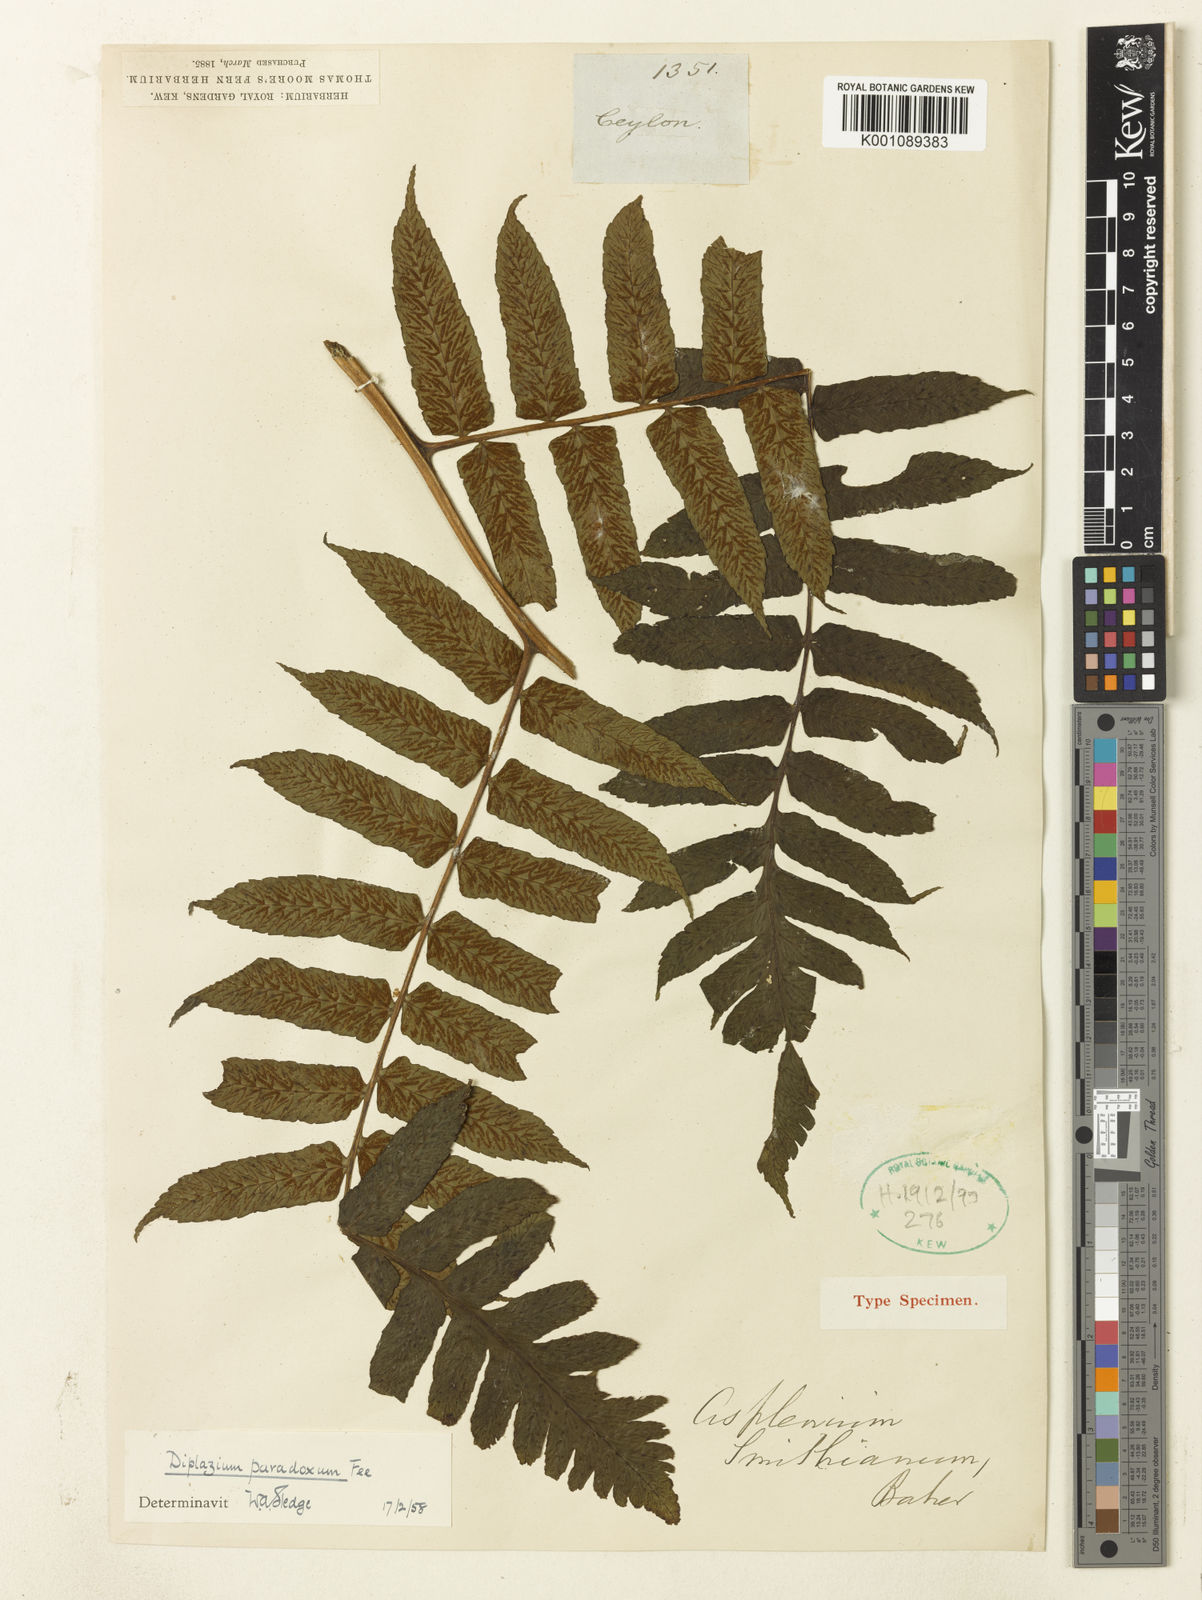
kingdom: Plantae
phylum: Tracheophyta
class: Polypodiopsida
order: Polypodiales
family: Athyriaceae
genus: Diplazium
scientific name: Diplazium
